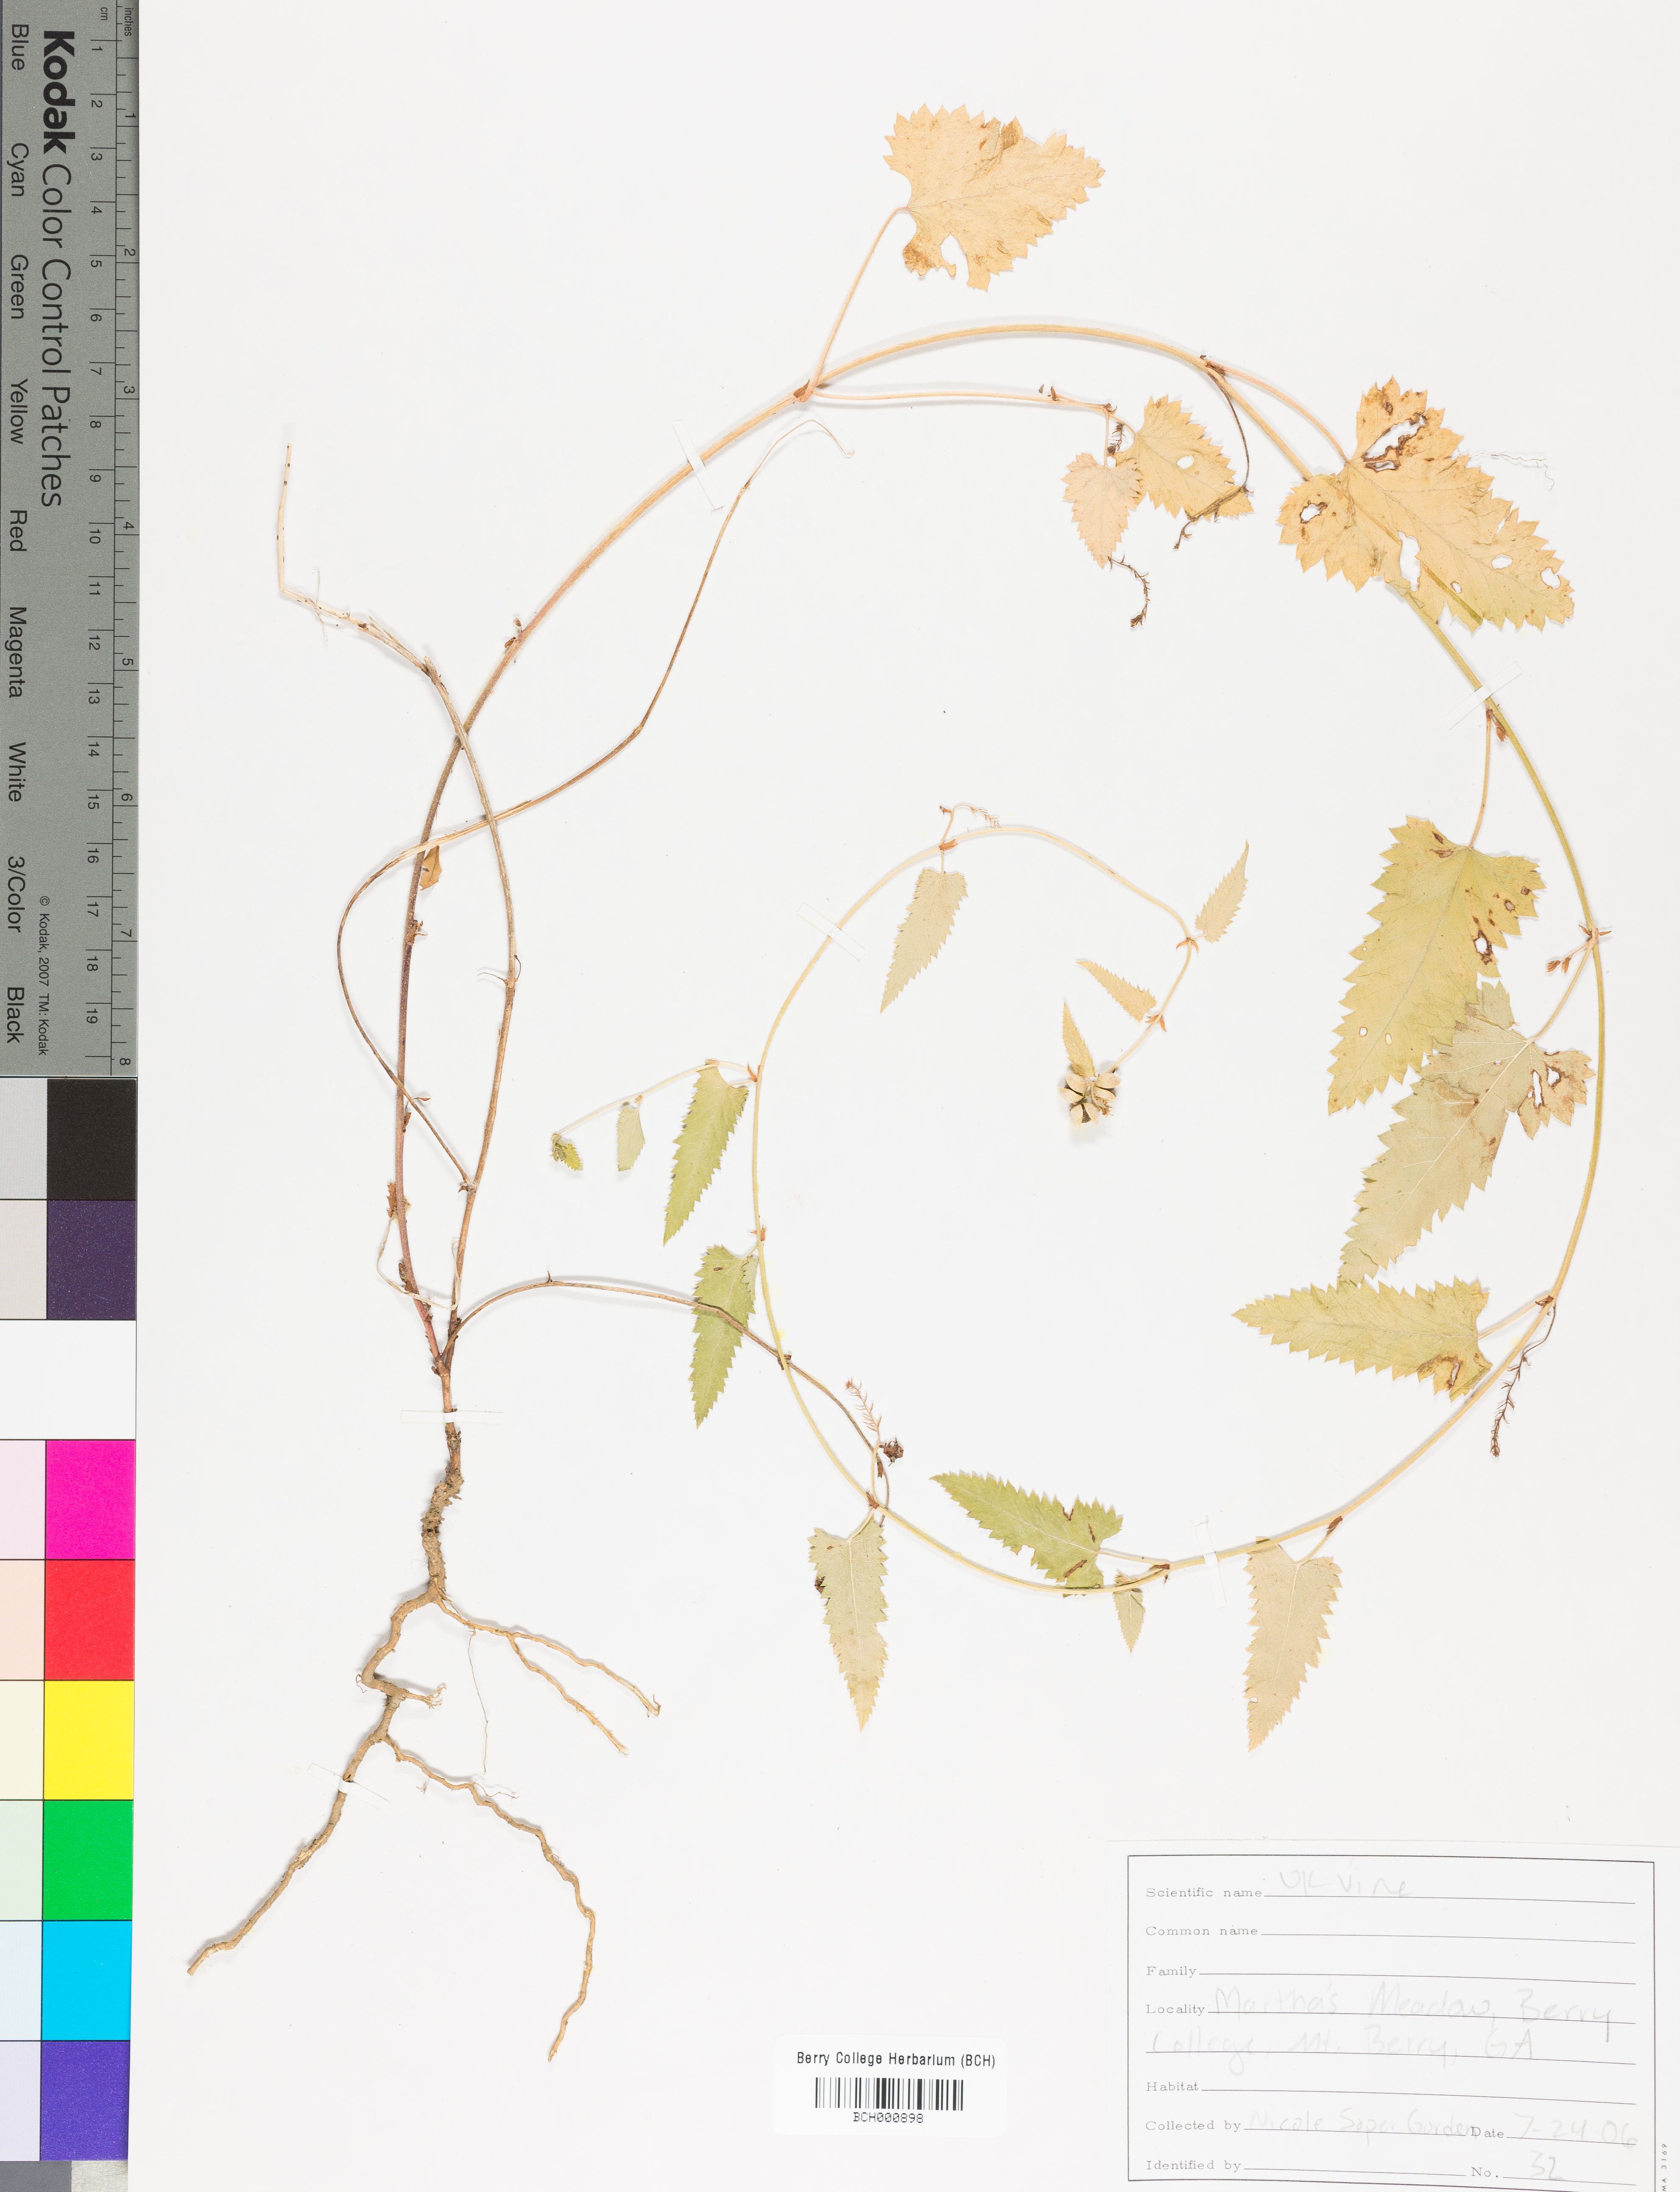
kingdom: Plantae
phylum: Tracheophyta
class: Magnoliopsida
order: Lamiales
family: Acanthaceae
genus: Adhatoda
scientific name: Adhatoda
